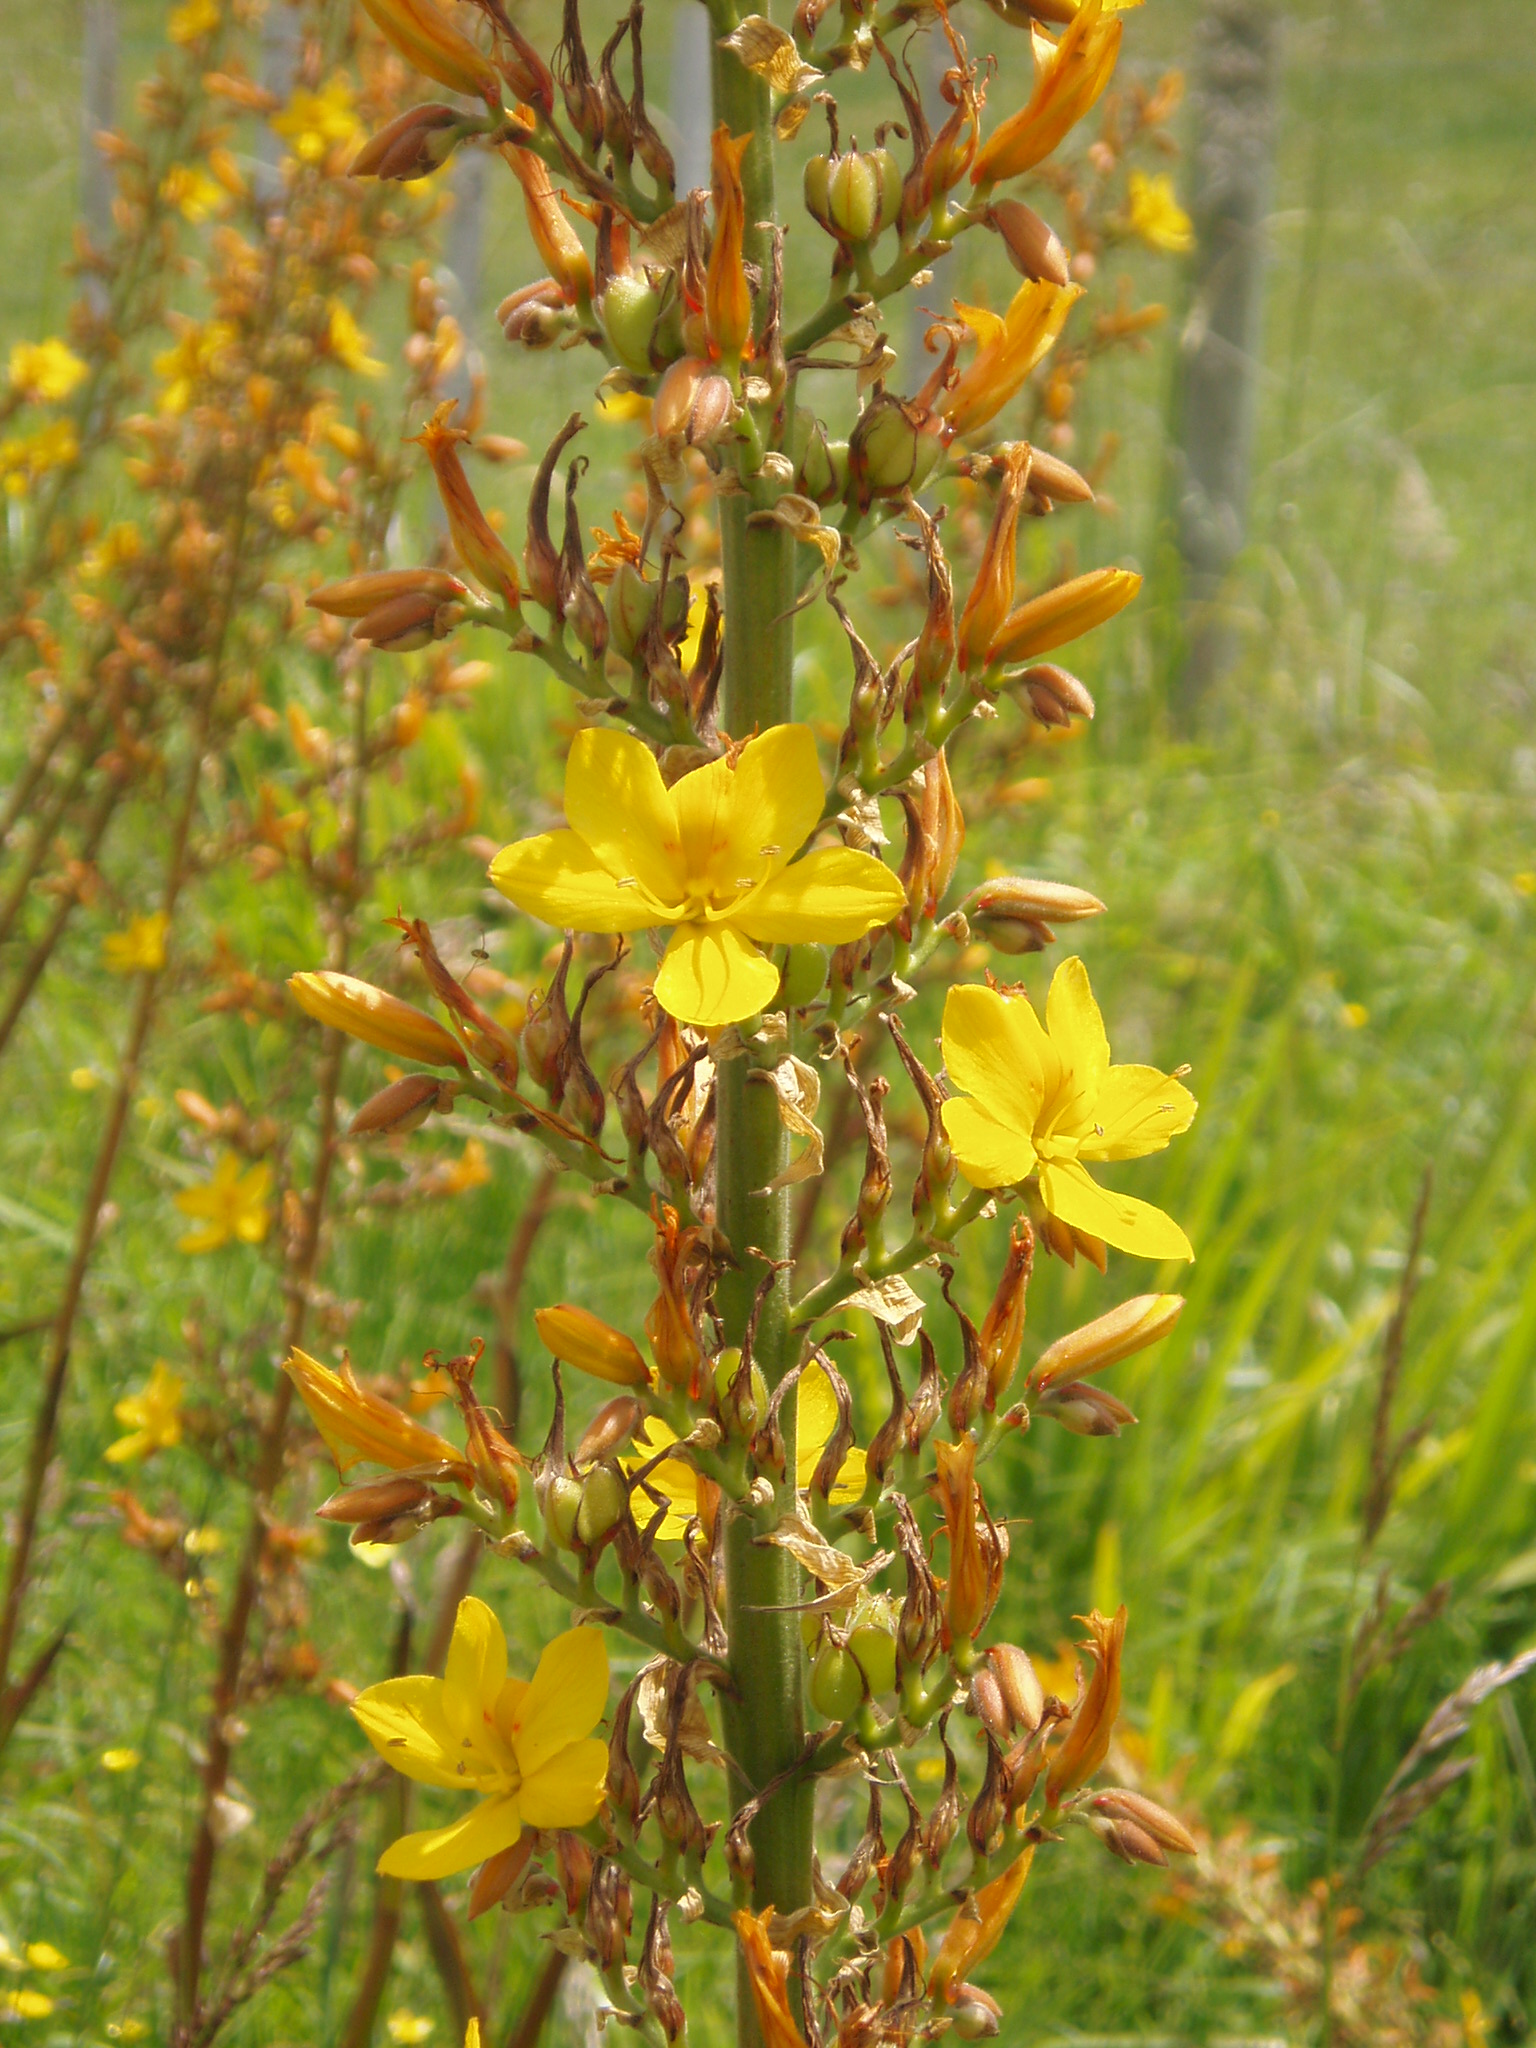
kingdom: Plantae
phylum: Tracheophyta
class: Liliopsida
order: Commelinales
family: Haemodoraceae
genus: Wachendorfia
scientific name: Wachendorfia thyrsiflora
